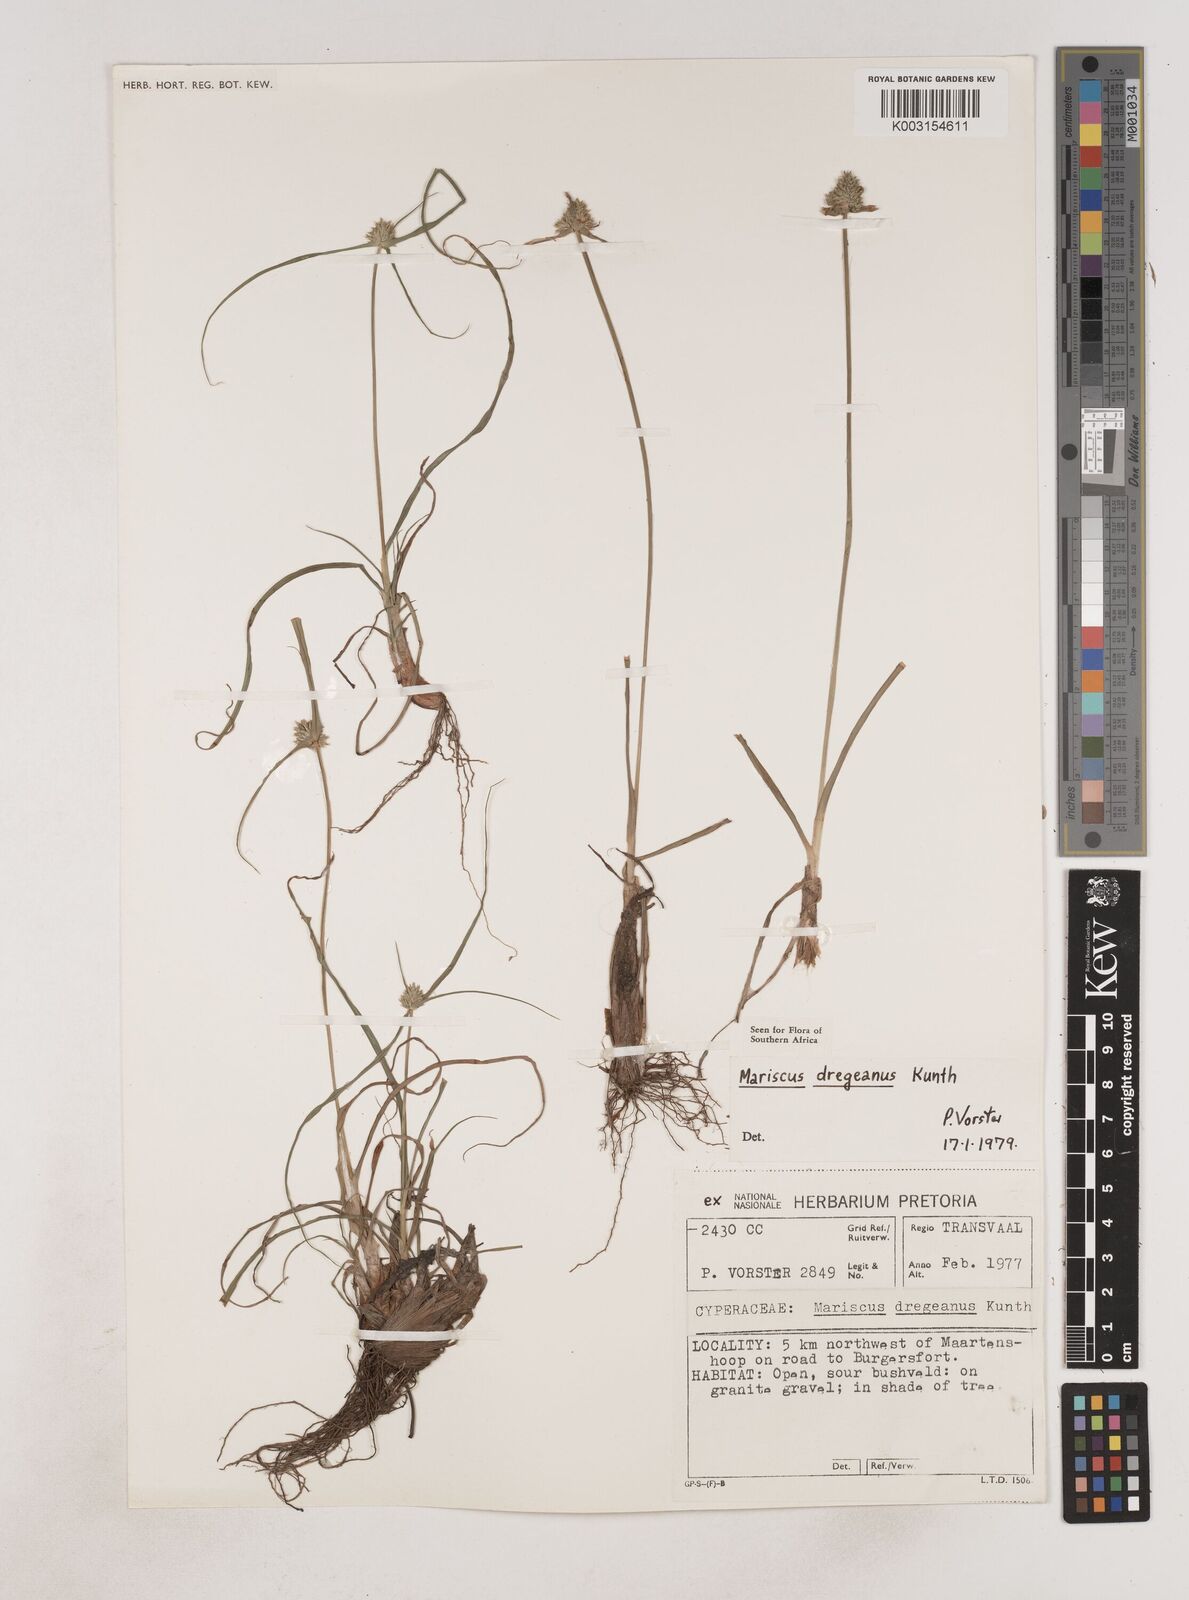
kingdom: Plantae
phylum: Tracheophyta
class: Liliopsida
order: Poales
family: Cyperaceae
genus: Cyperus
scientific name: Cyperus dubius
